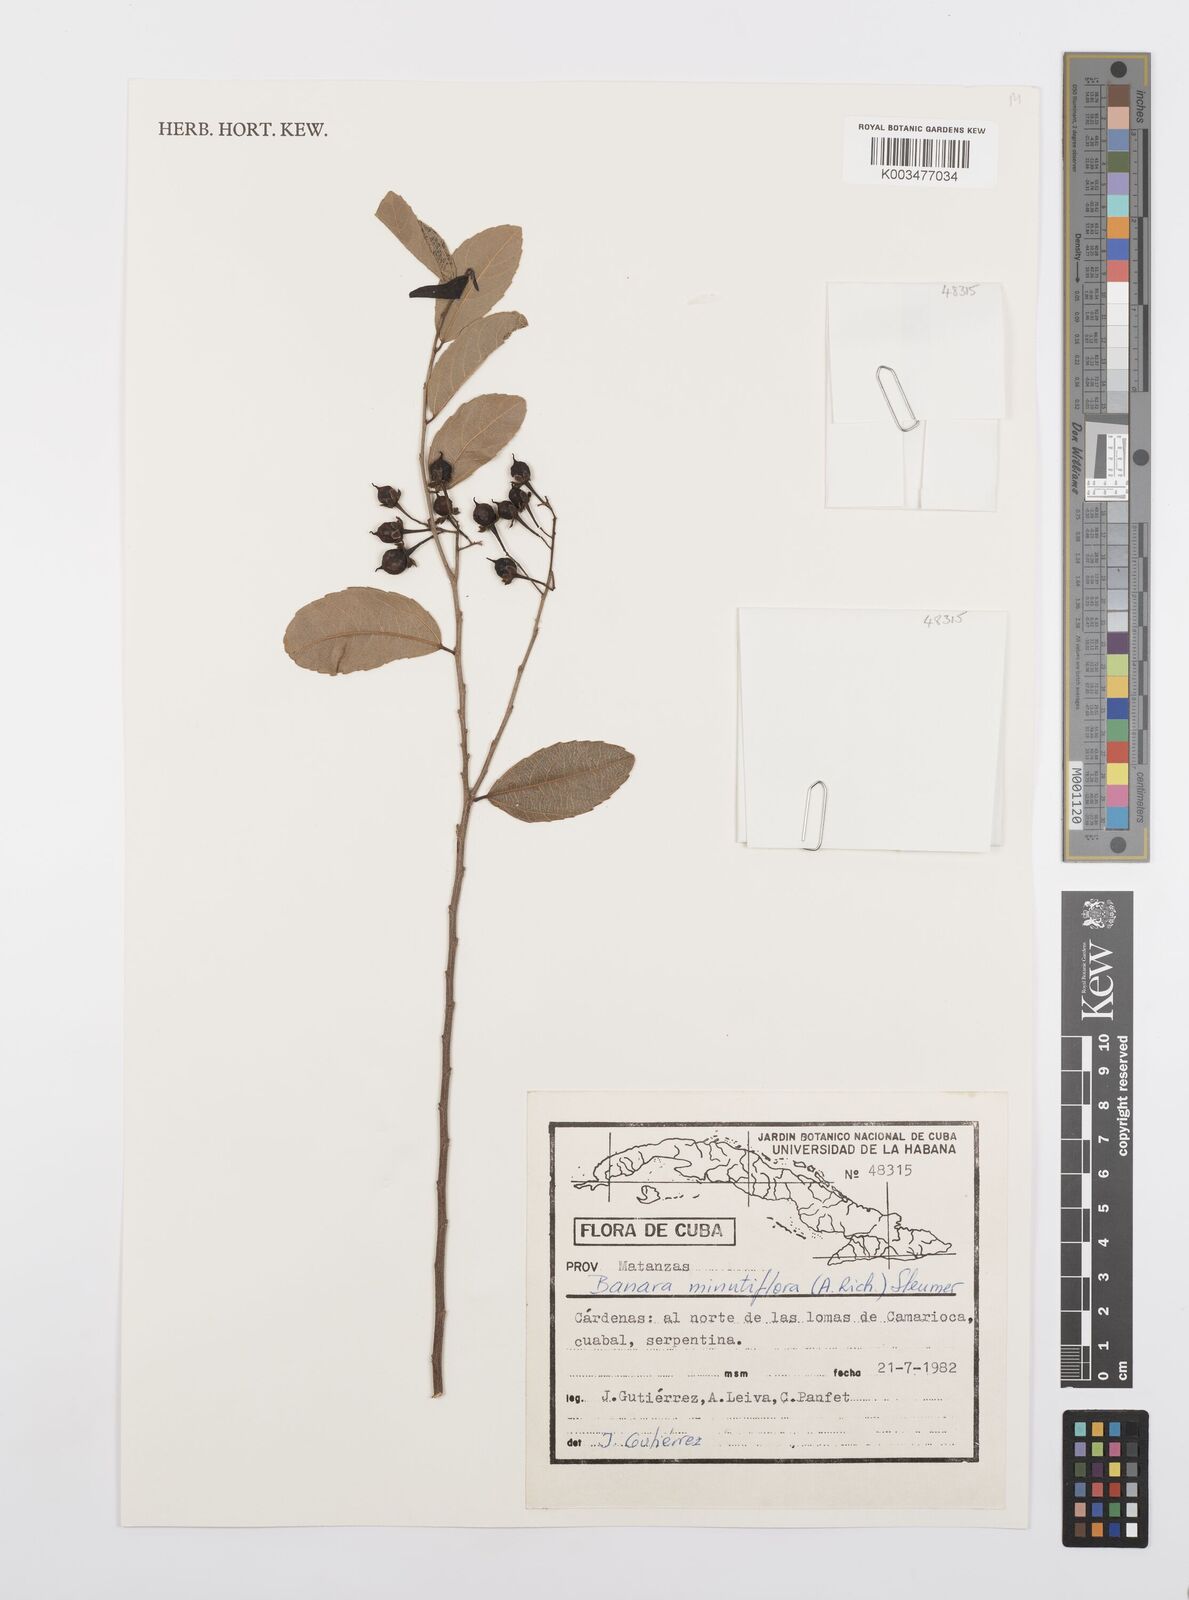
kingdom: Plantae
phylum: Tracheophyta
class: Magnoliopsida
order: Malpighiales
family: Salicaceae
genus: Banara
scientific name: Banara minutiflora
